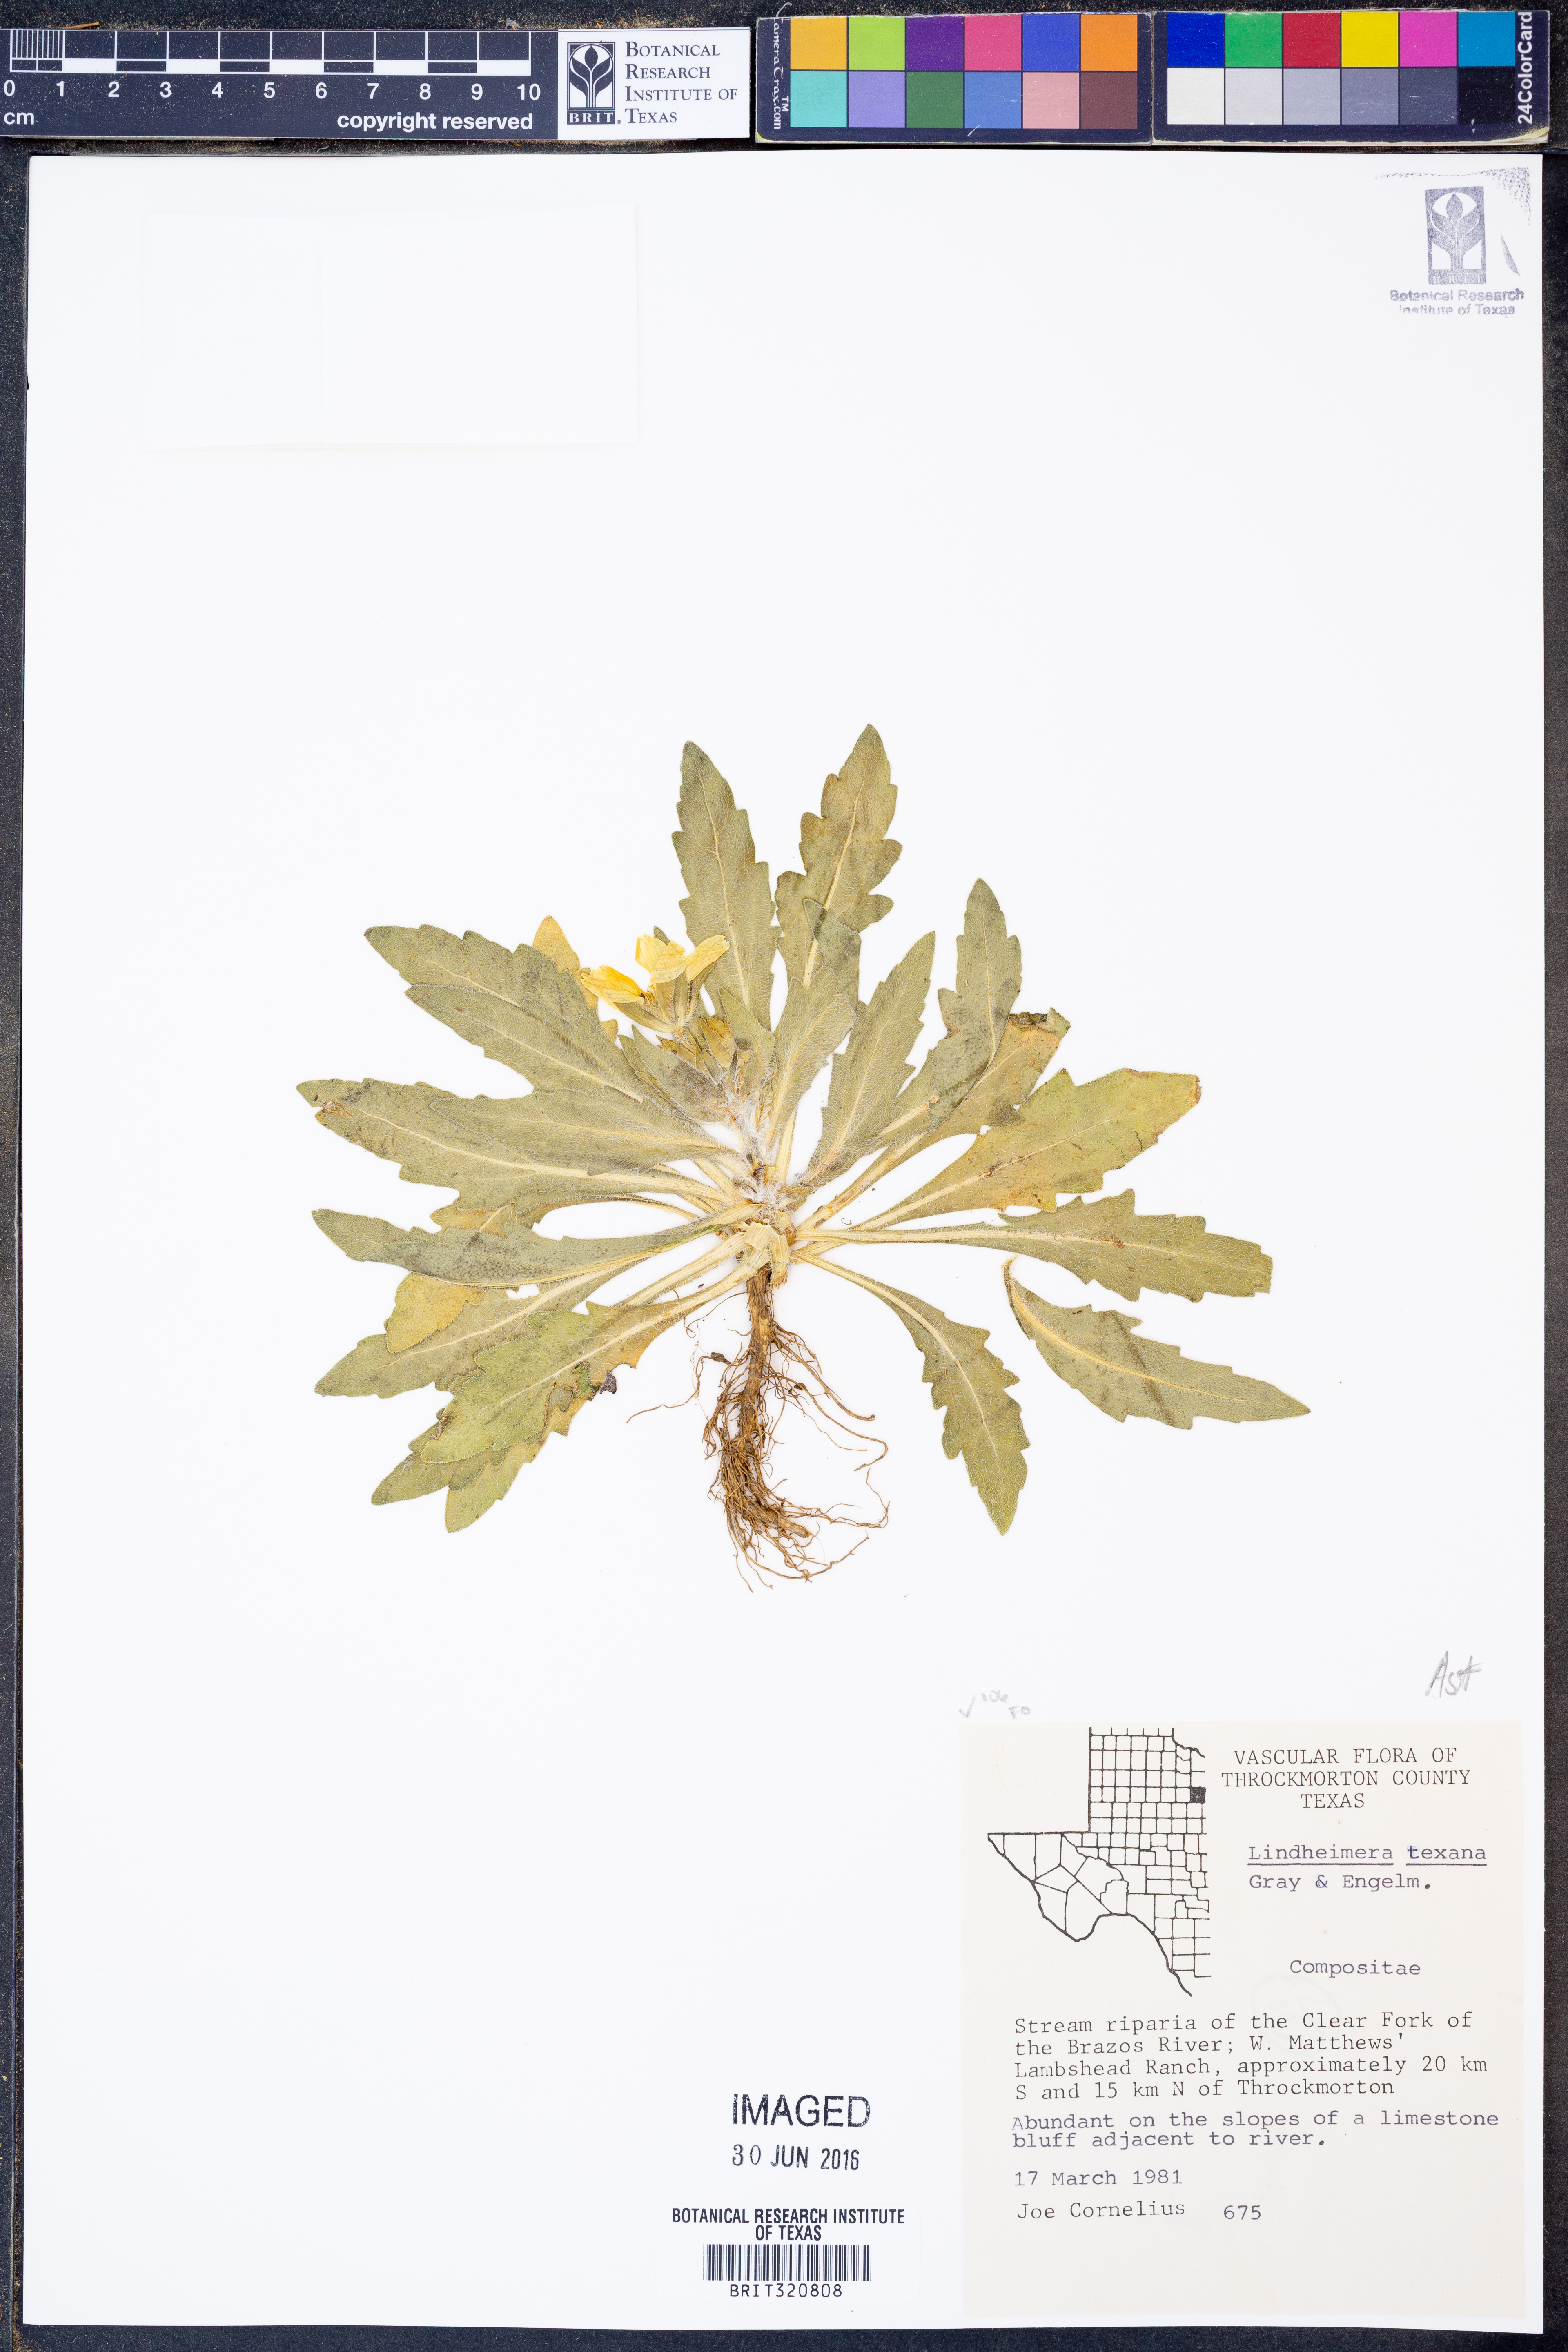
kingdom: Plantae
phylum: Tracheophyta
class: Magnoliopsida
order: Asterales
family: Asteraceae
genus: Lindheimera
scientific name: Lindheimera texana
